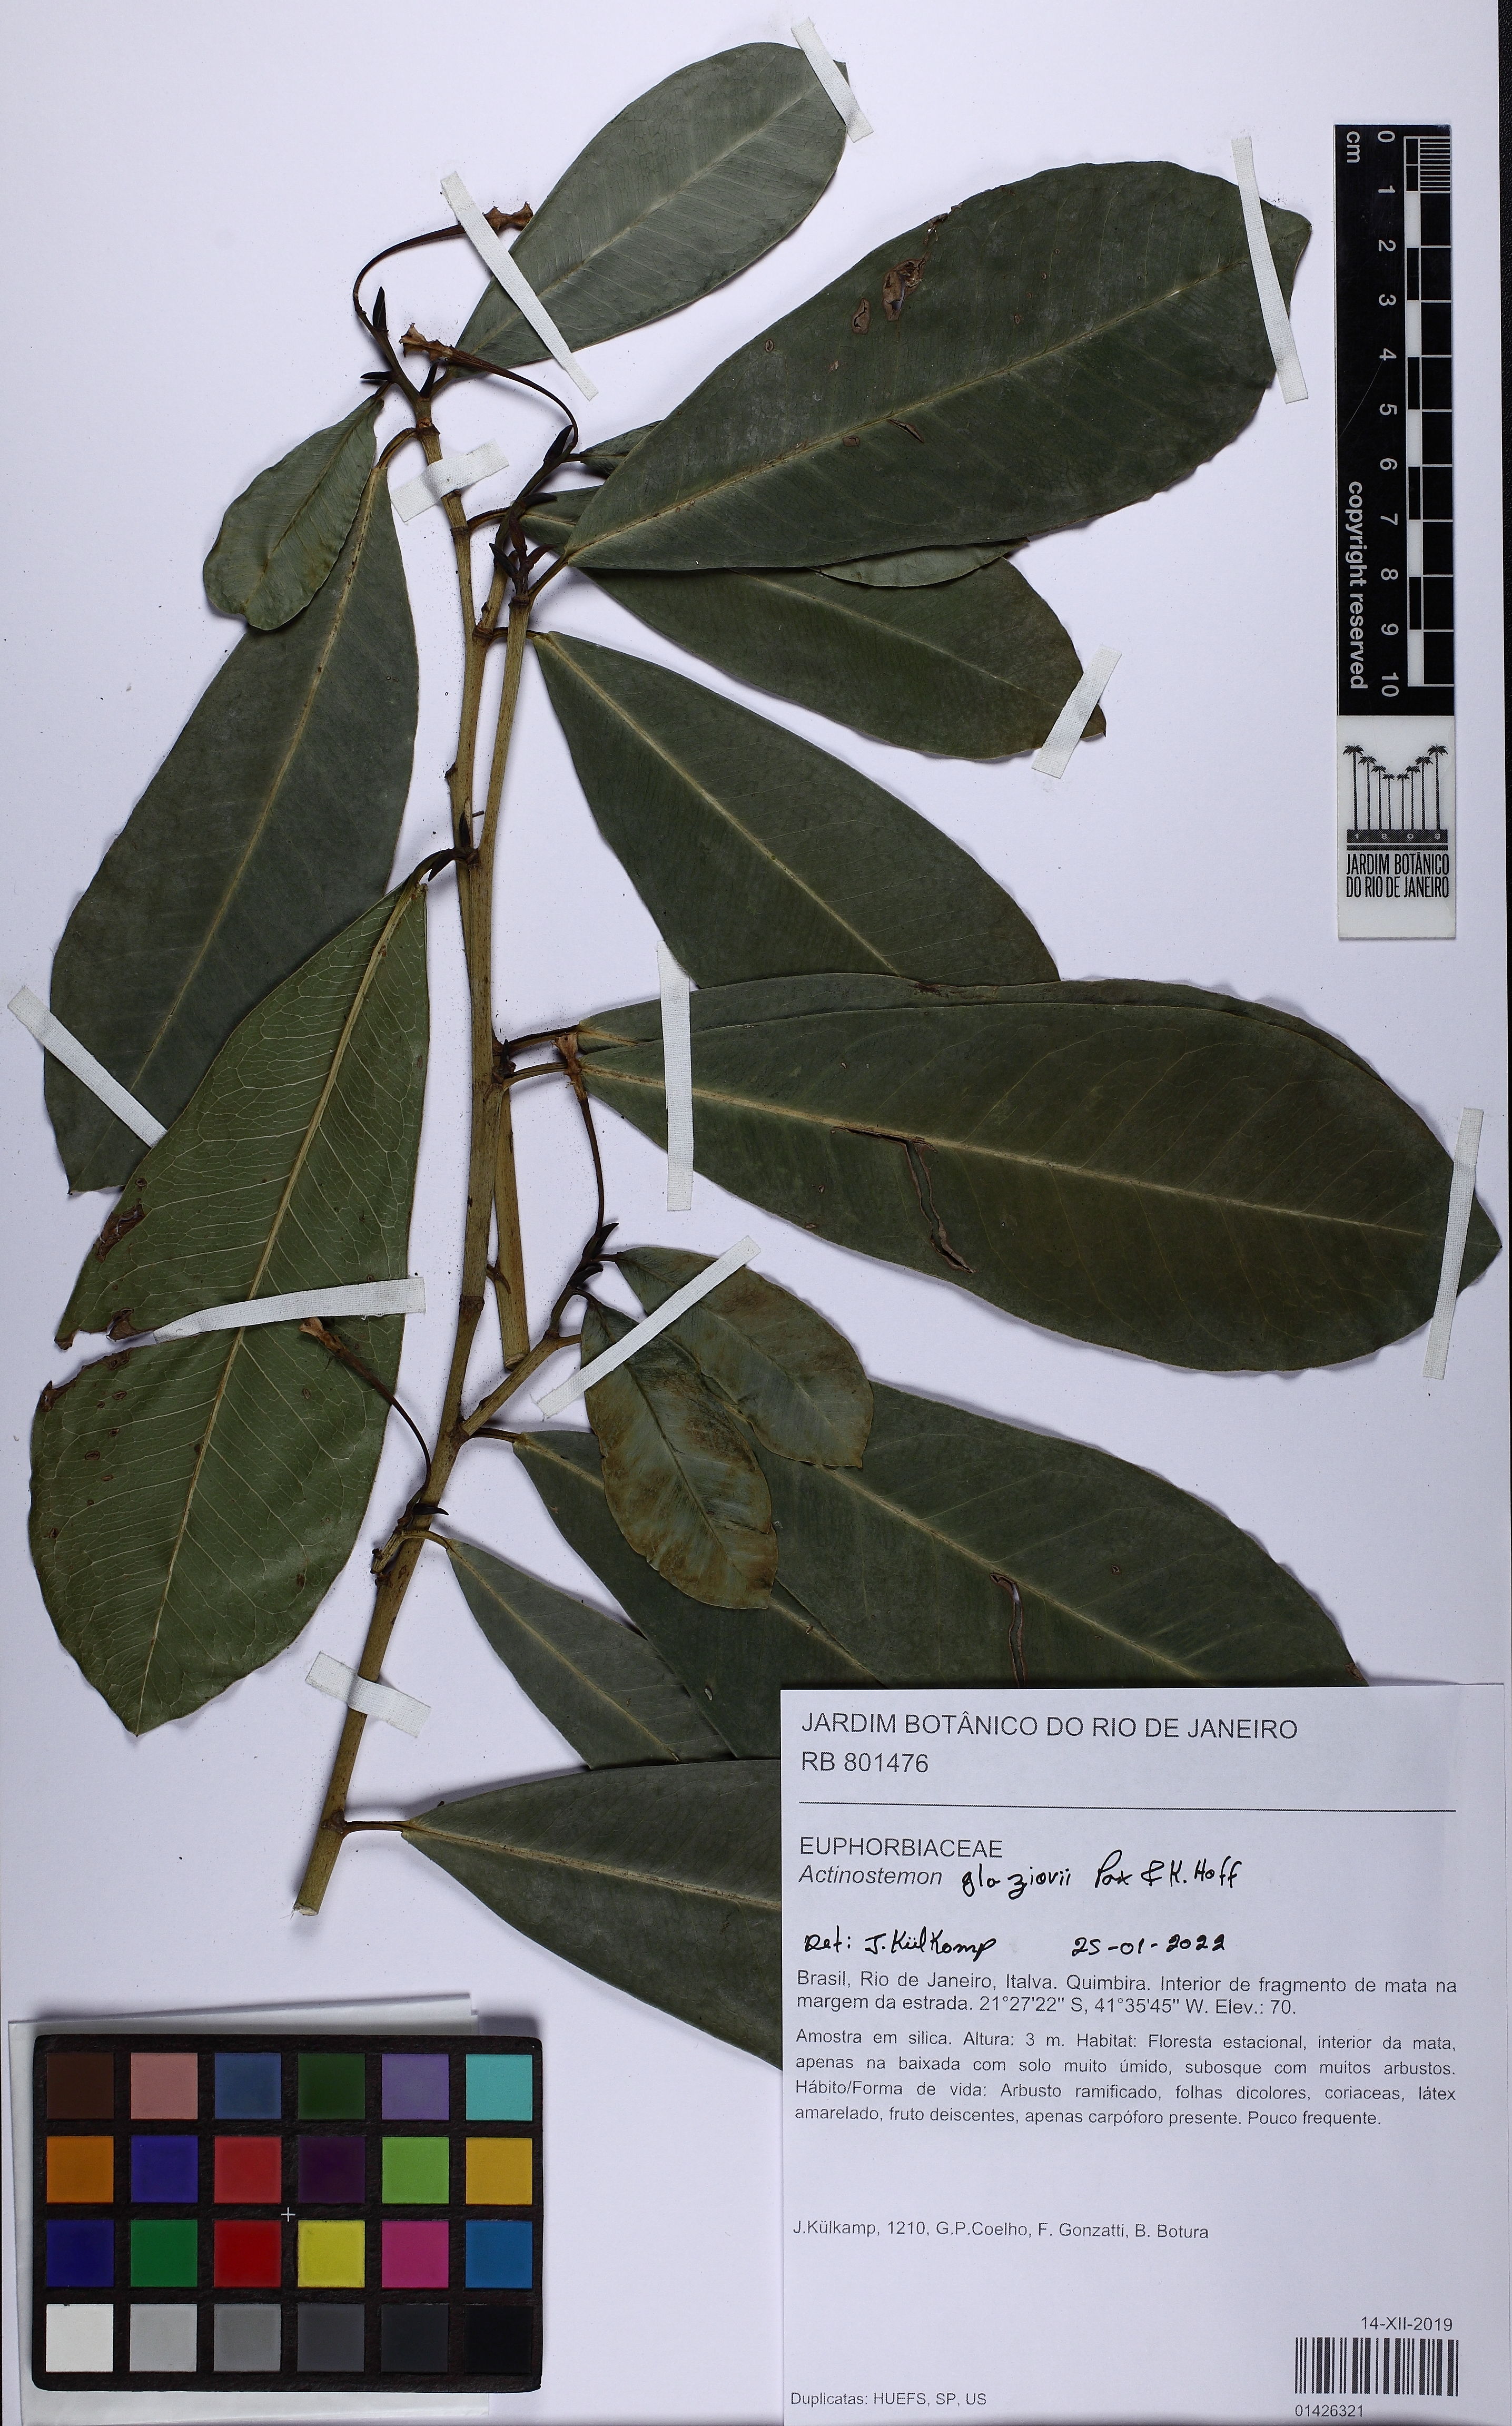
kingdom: Plantae
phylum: Tracheophyta
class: Magnoliopsida
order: Malpighiales
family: Euphorbiaceae
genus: Actinostemon
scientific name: Actinostemon glaziovii
